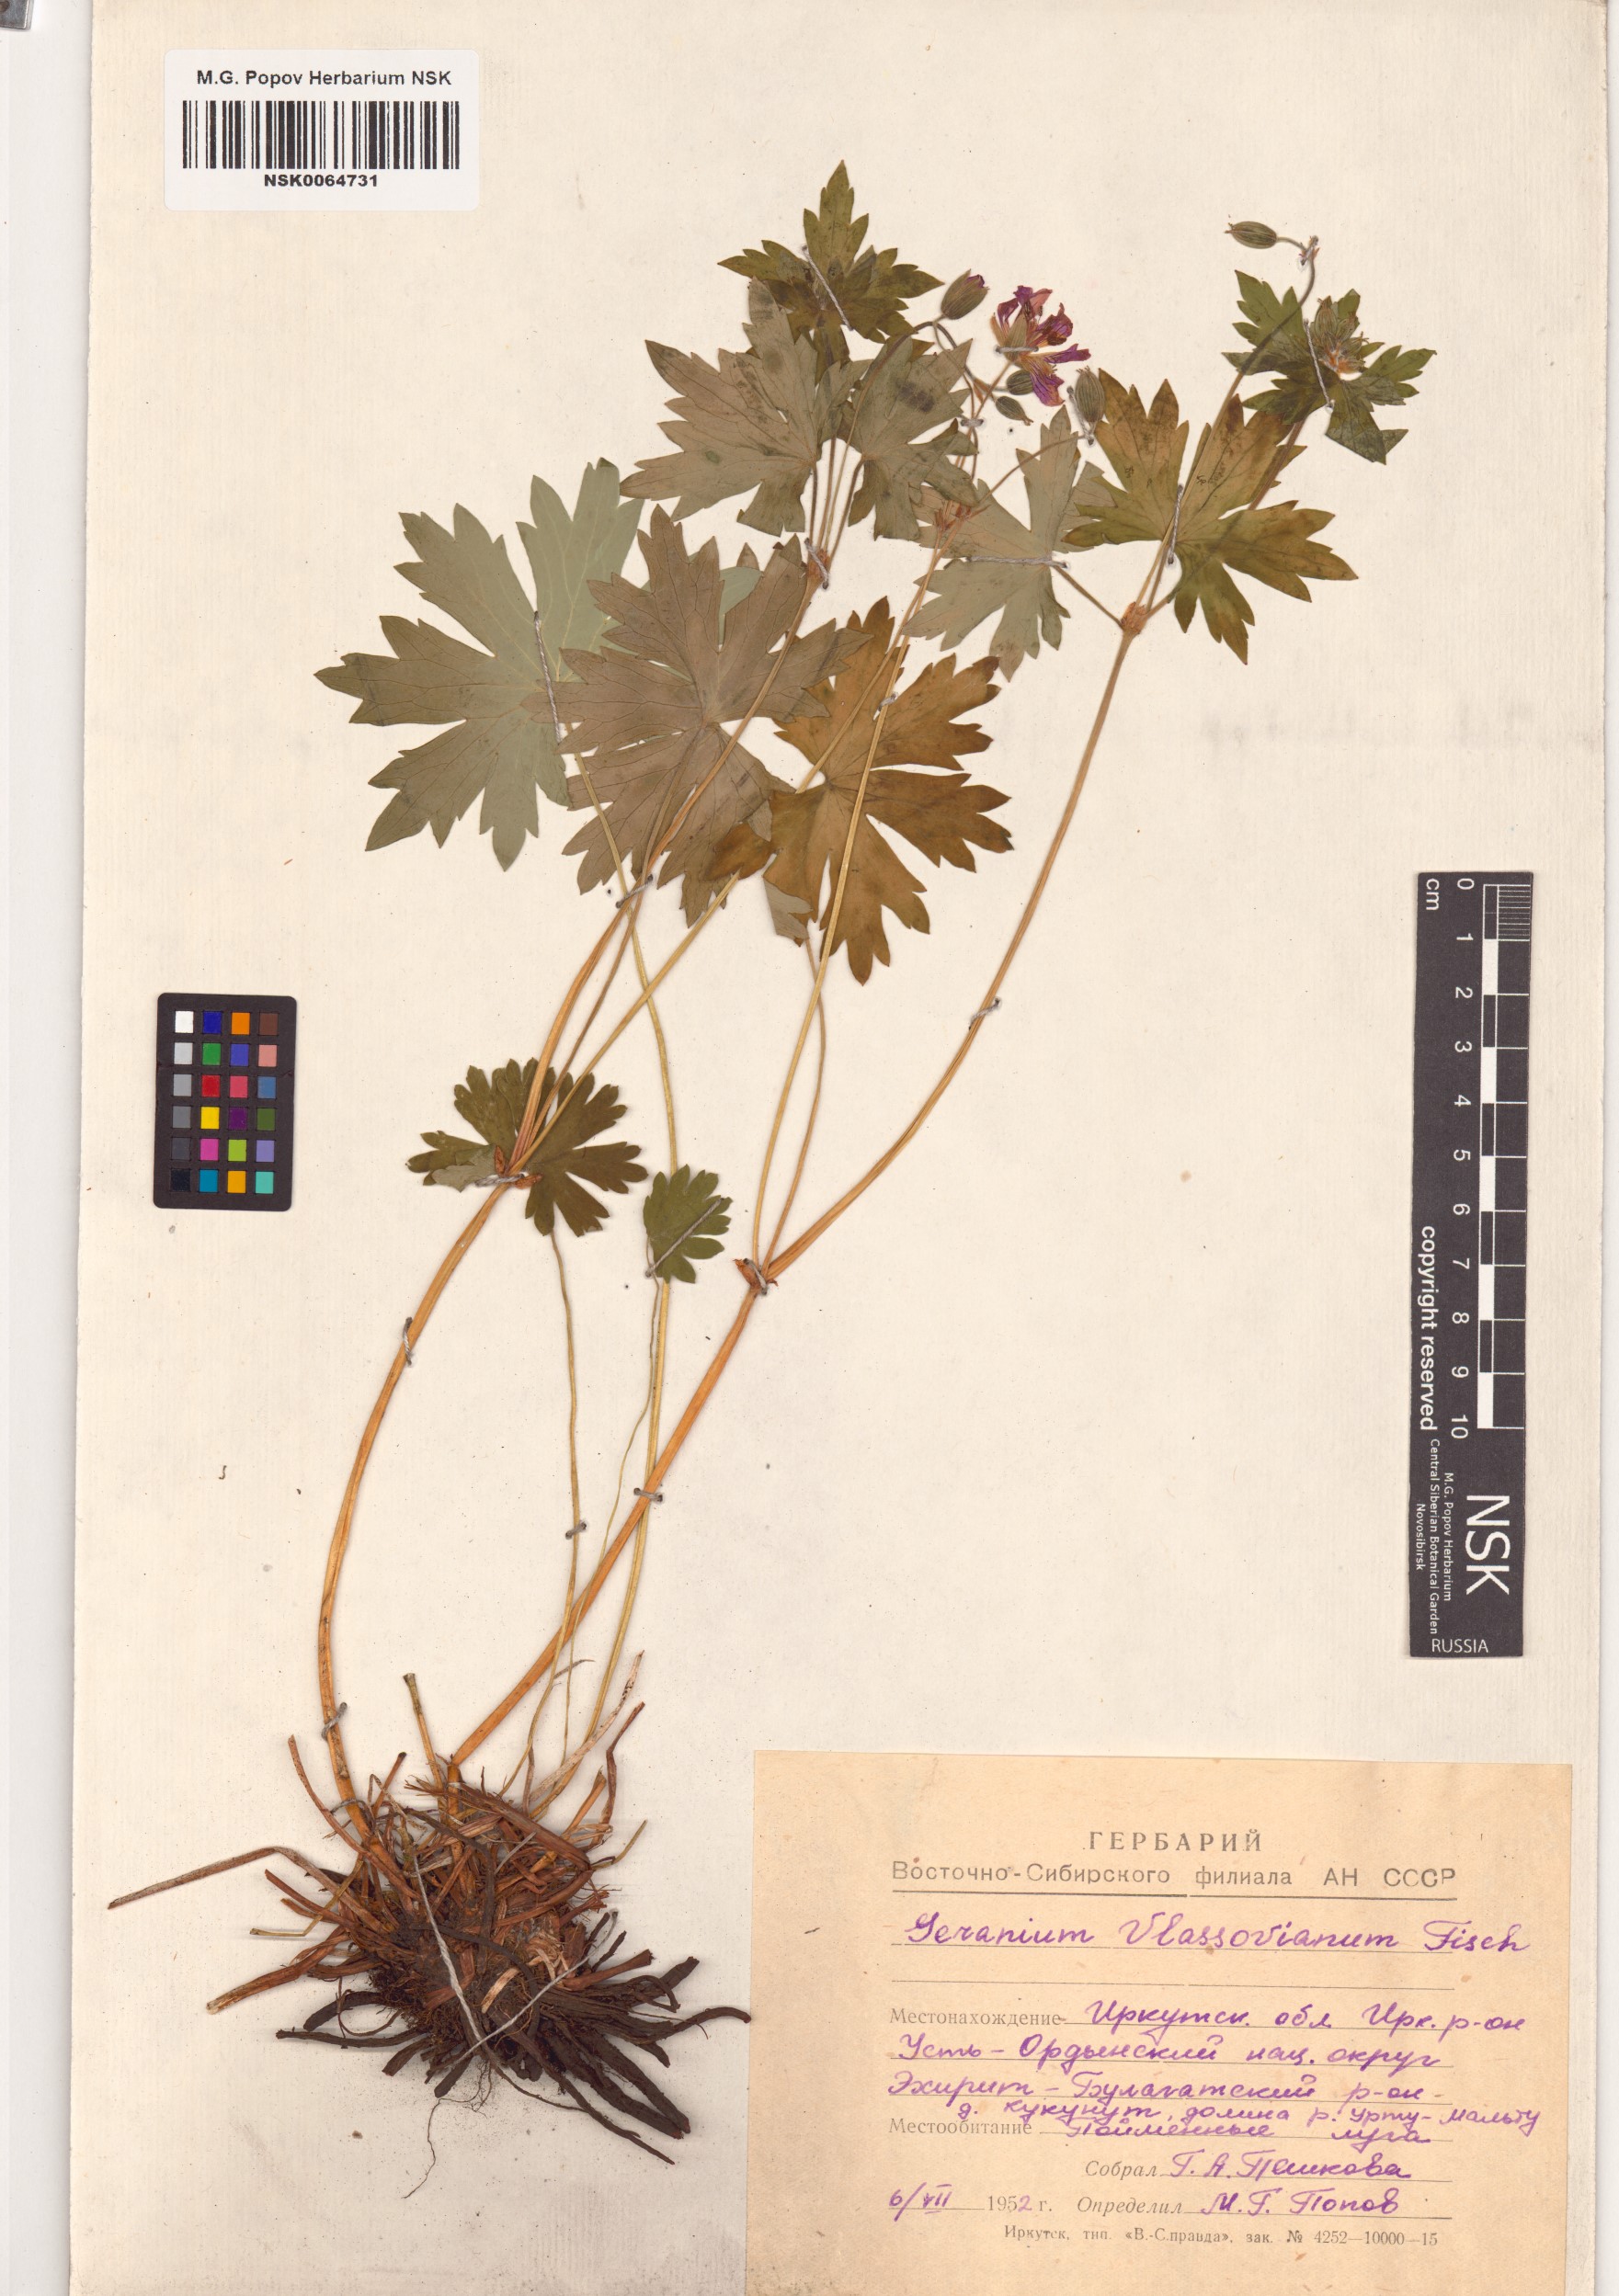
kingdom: Plantae
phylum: Tracheophyta
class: Magnoliopsida
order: Geraniales
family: Geraniaceae
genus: Geranium
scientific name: Geranium wlassovianum
